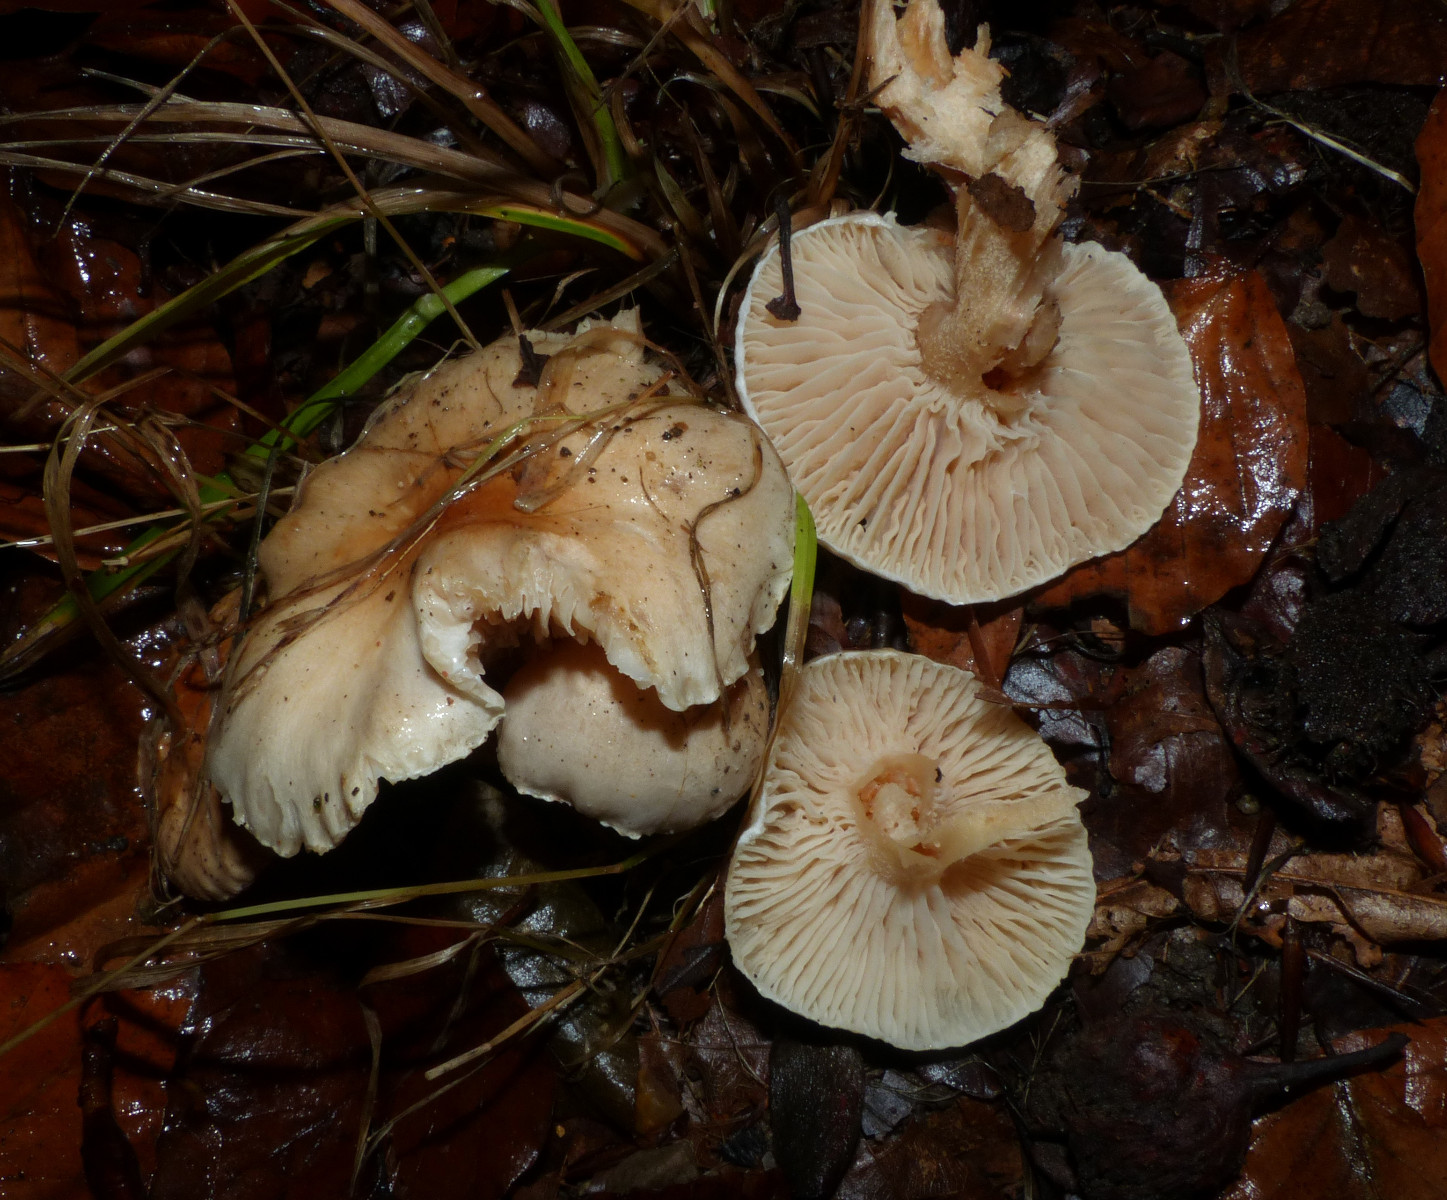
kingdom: Fungi
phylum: Basidiomycota
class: Agaricomycetes
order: Agaricales
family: Hygrophoraceae
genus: Hygrophorus
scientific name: Hygrophorus unicolor
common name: orangeøjet sneglehat
